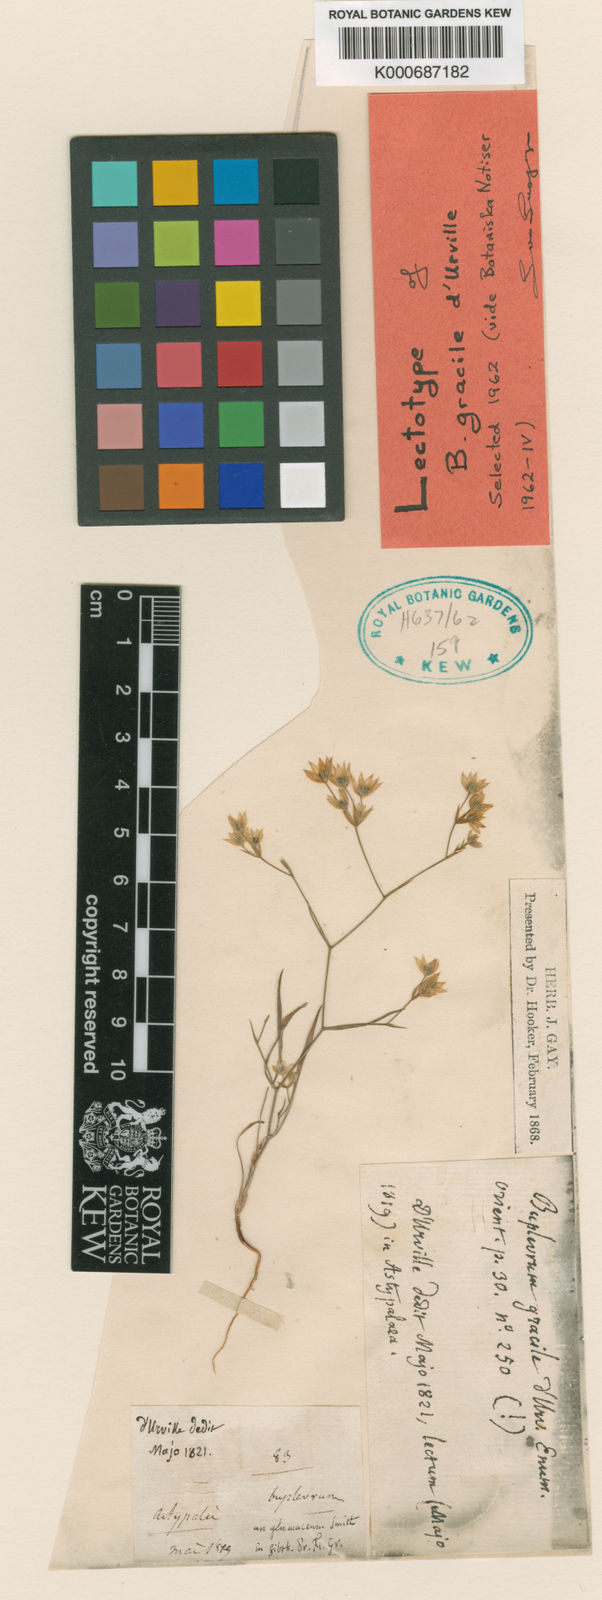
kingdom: Plantae
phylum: Tracheophyta
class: Magnoliopsida
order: Apiales
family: Apiaceae
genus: Bupleurum
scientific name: Bupleurum gracile
